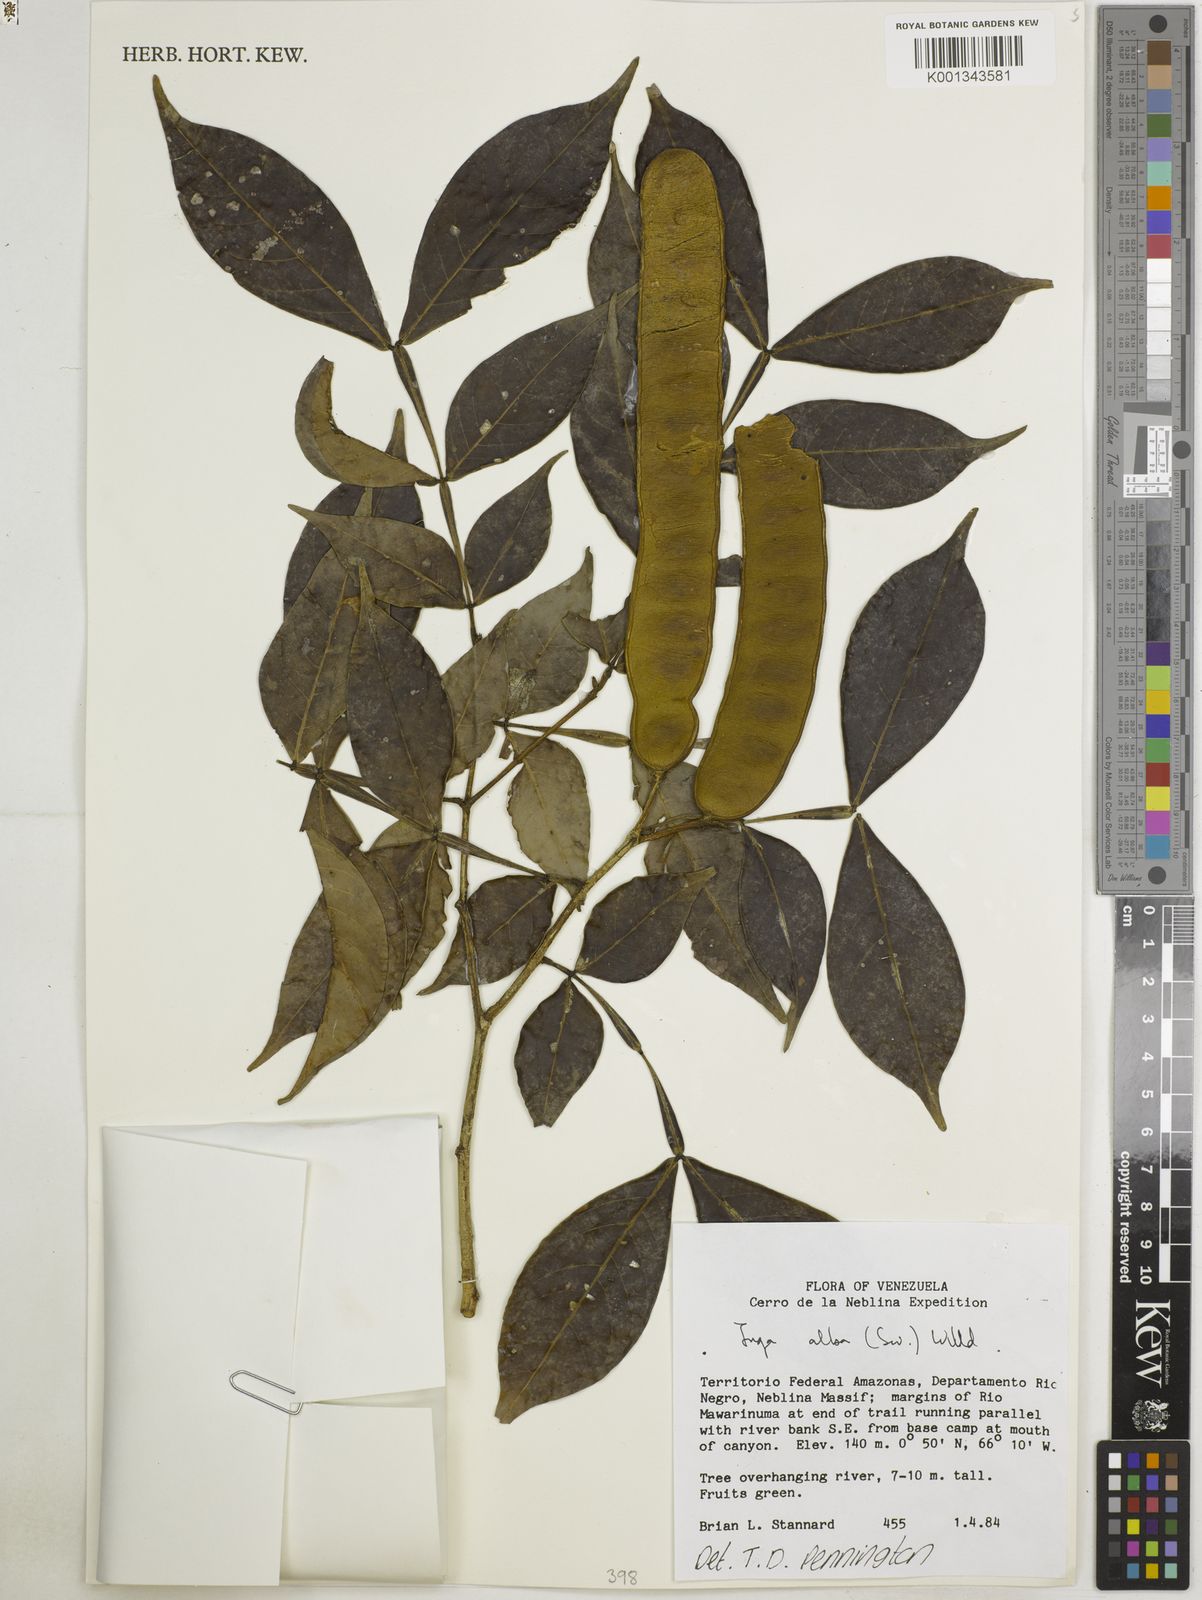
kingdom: Plantae
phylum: Tracheophyta
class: Magnoliopsida
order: Fabales
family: Fabaceae
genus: Inga
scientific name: Inga alba
